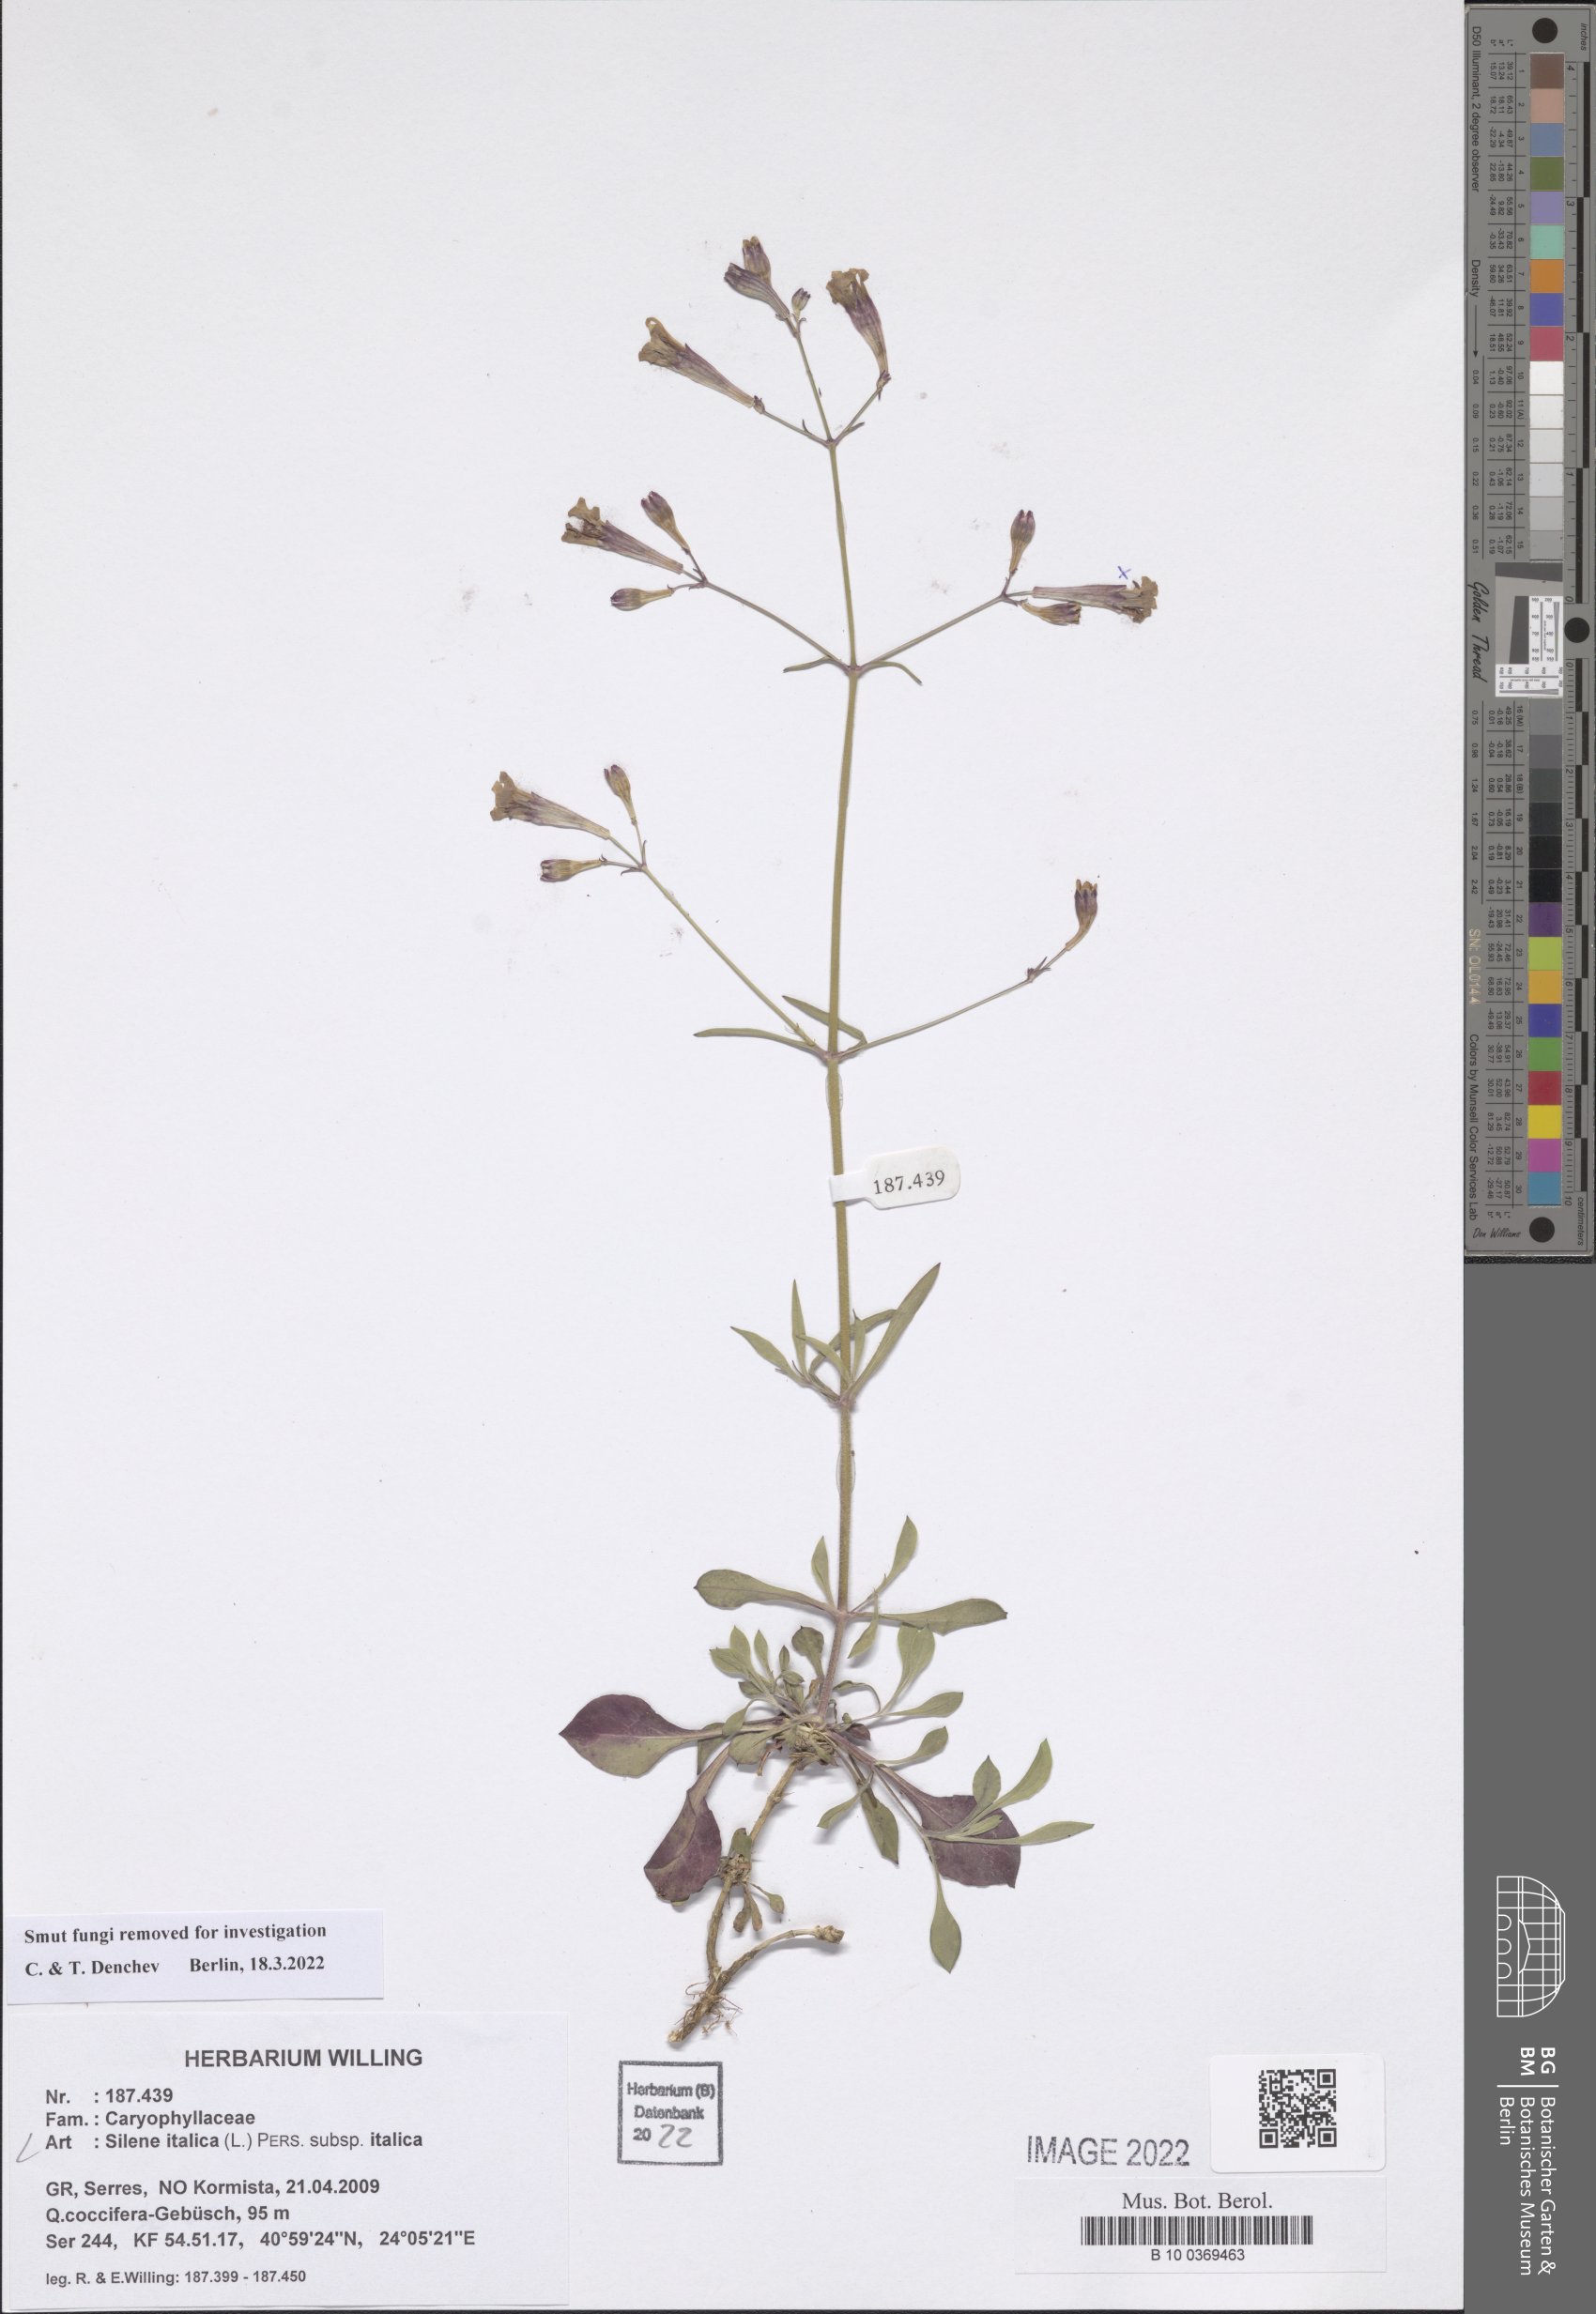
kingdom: Plantae
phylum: Tracheophyta
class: Magnoliopsida
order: Caryophyllales
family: Caryophyllaceae
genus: Silene
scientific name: Silene italica
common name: Italian catchfly
